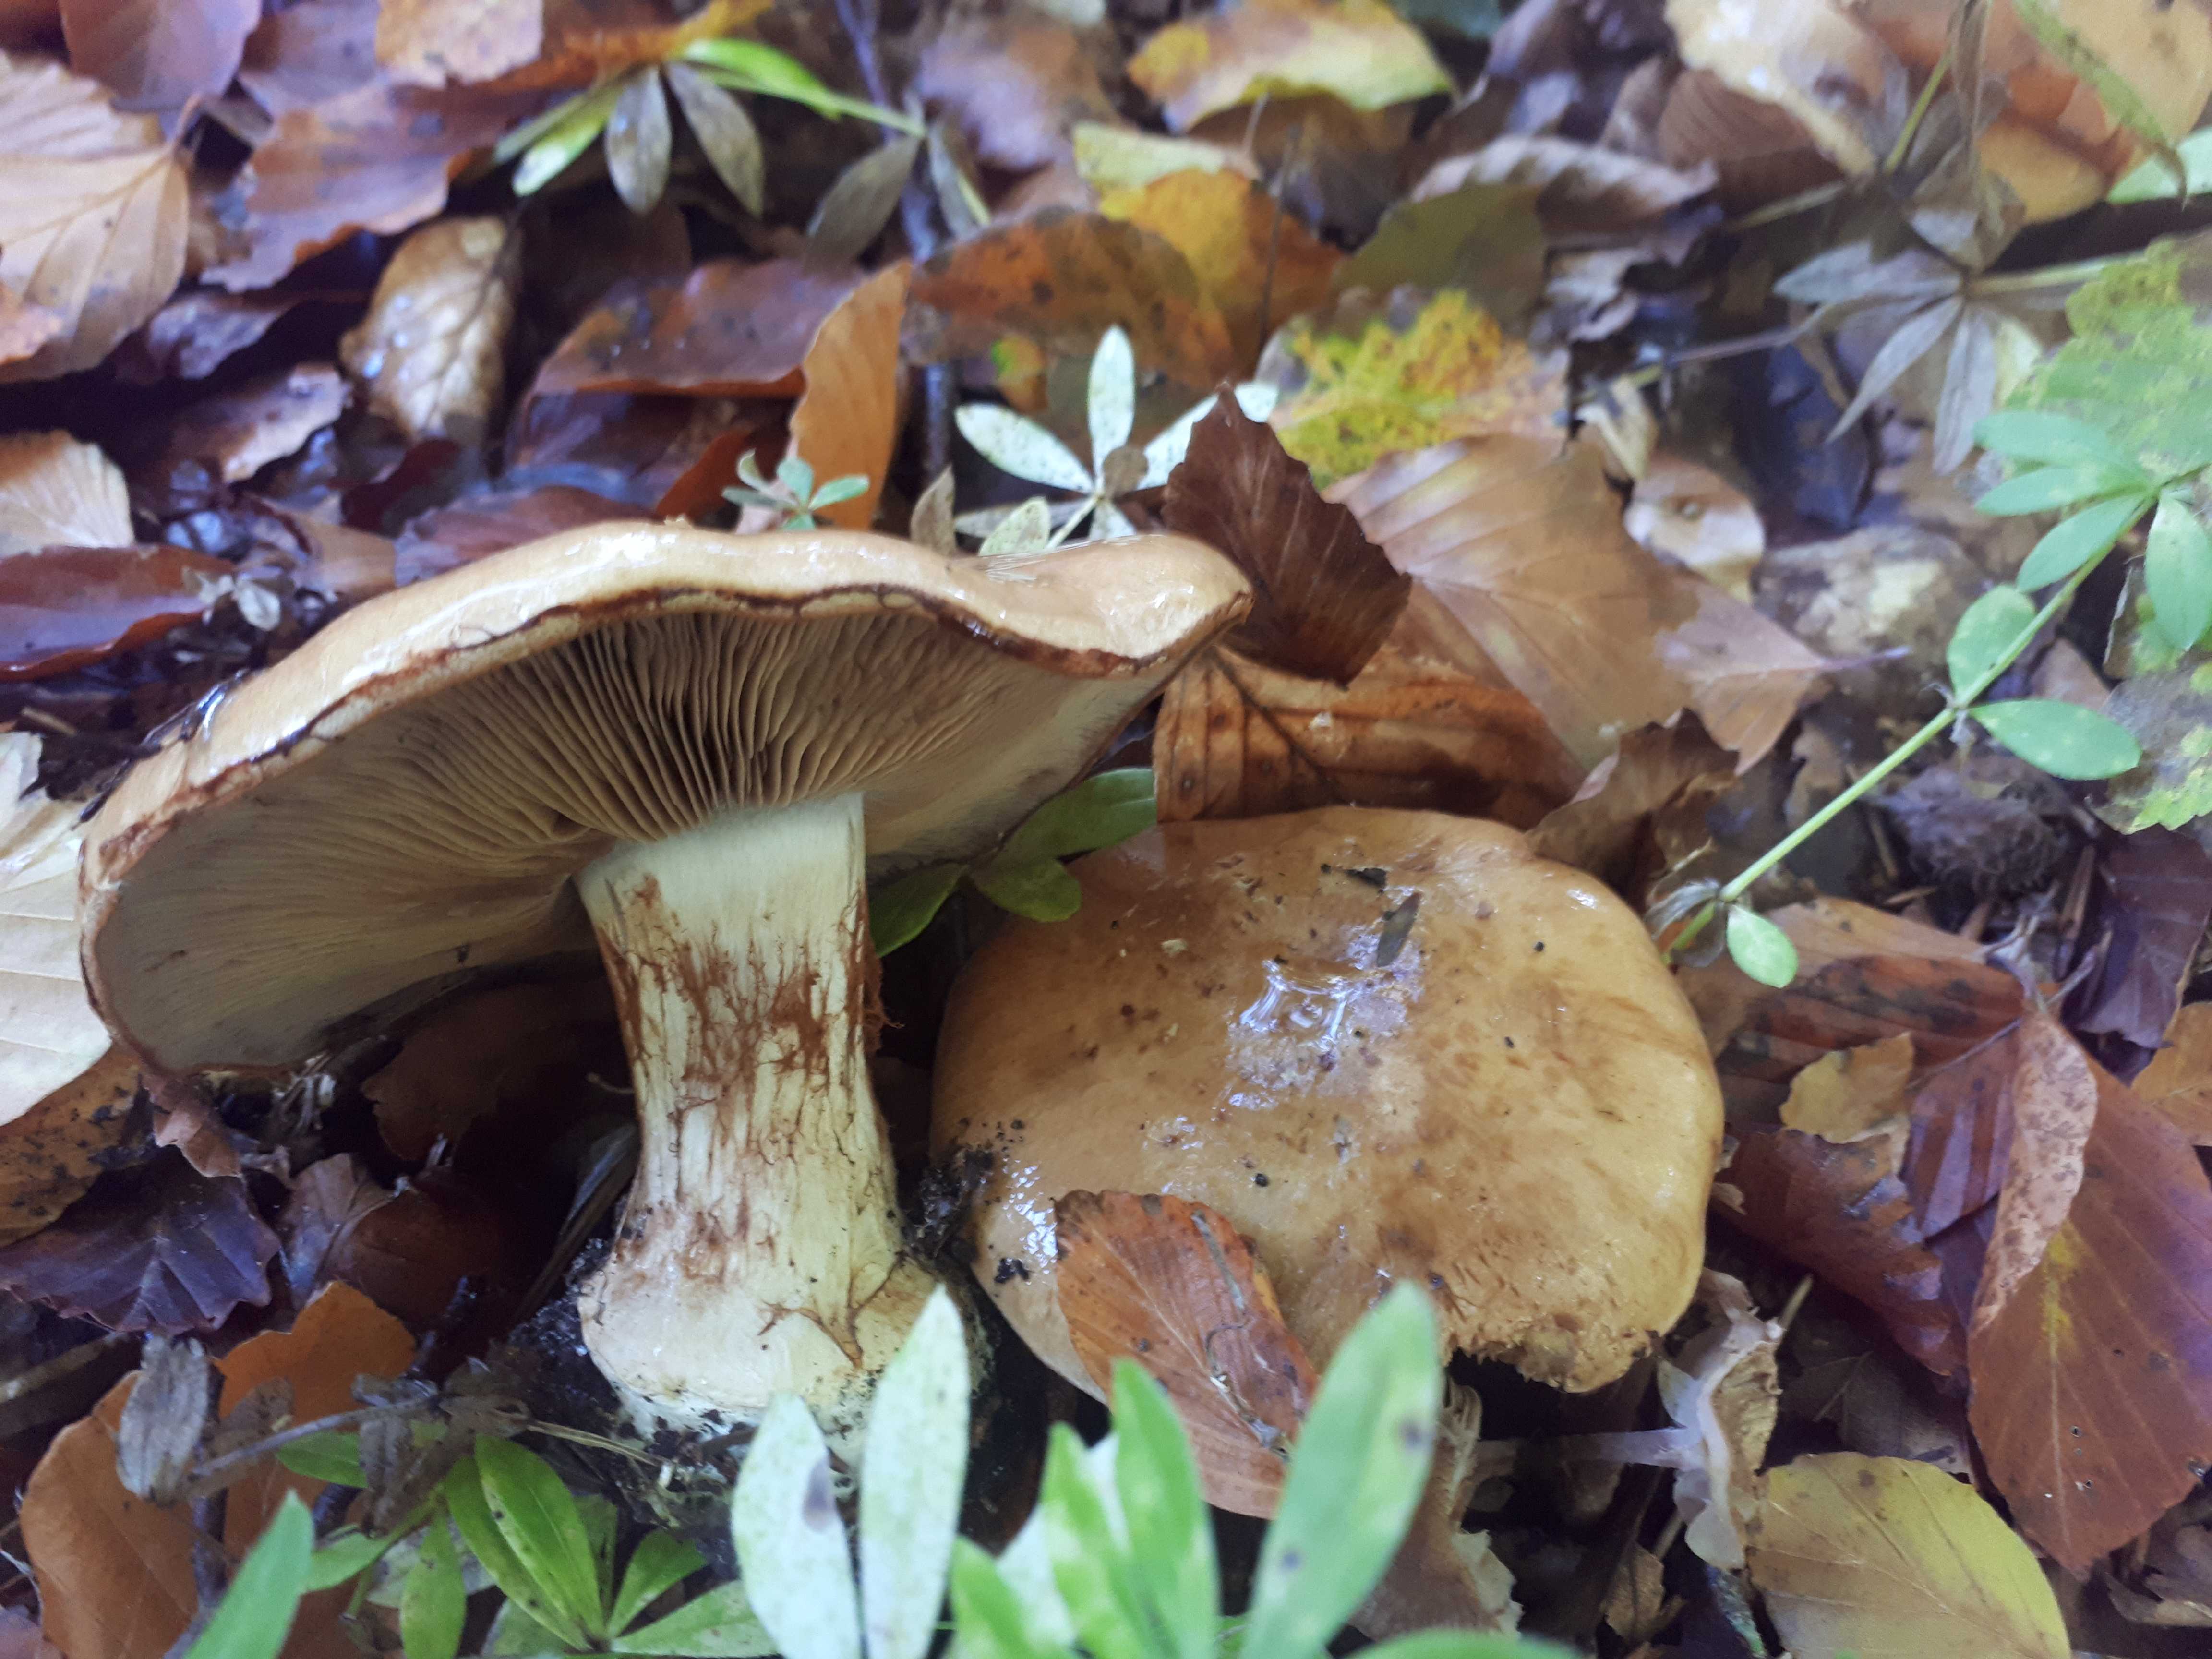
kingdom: Fungi
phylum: Basidiomycota
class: Agaricomycetes
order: Agaricales
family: Cortinariaceae
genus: Cortinarius
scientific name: Cortinarius anserinus
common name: bøge-slørhat
